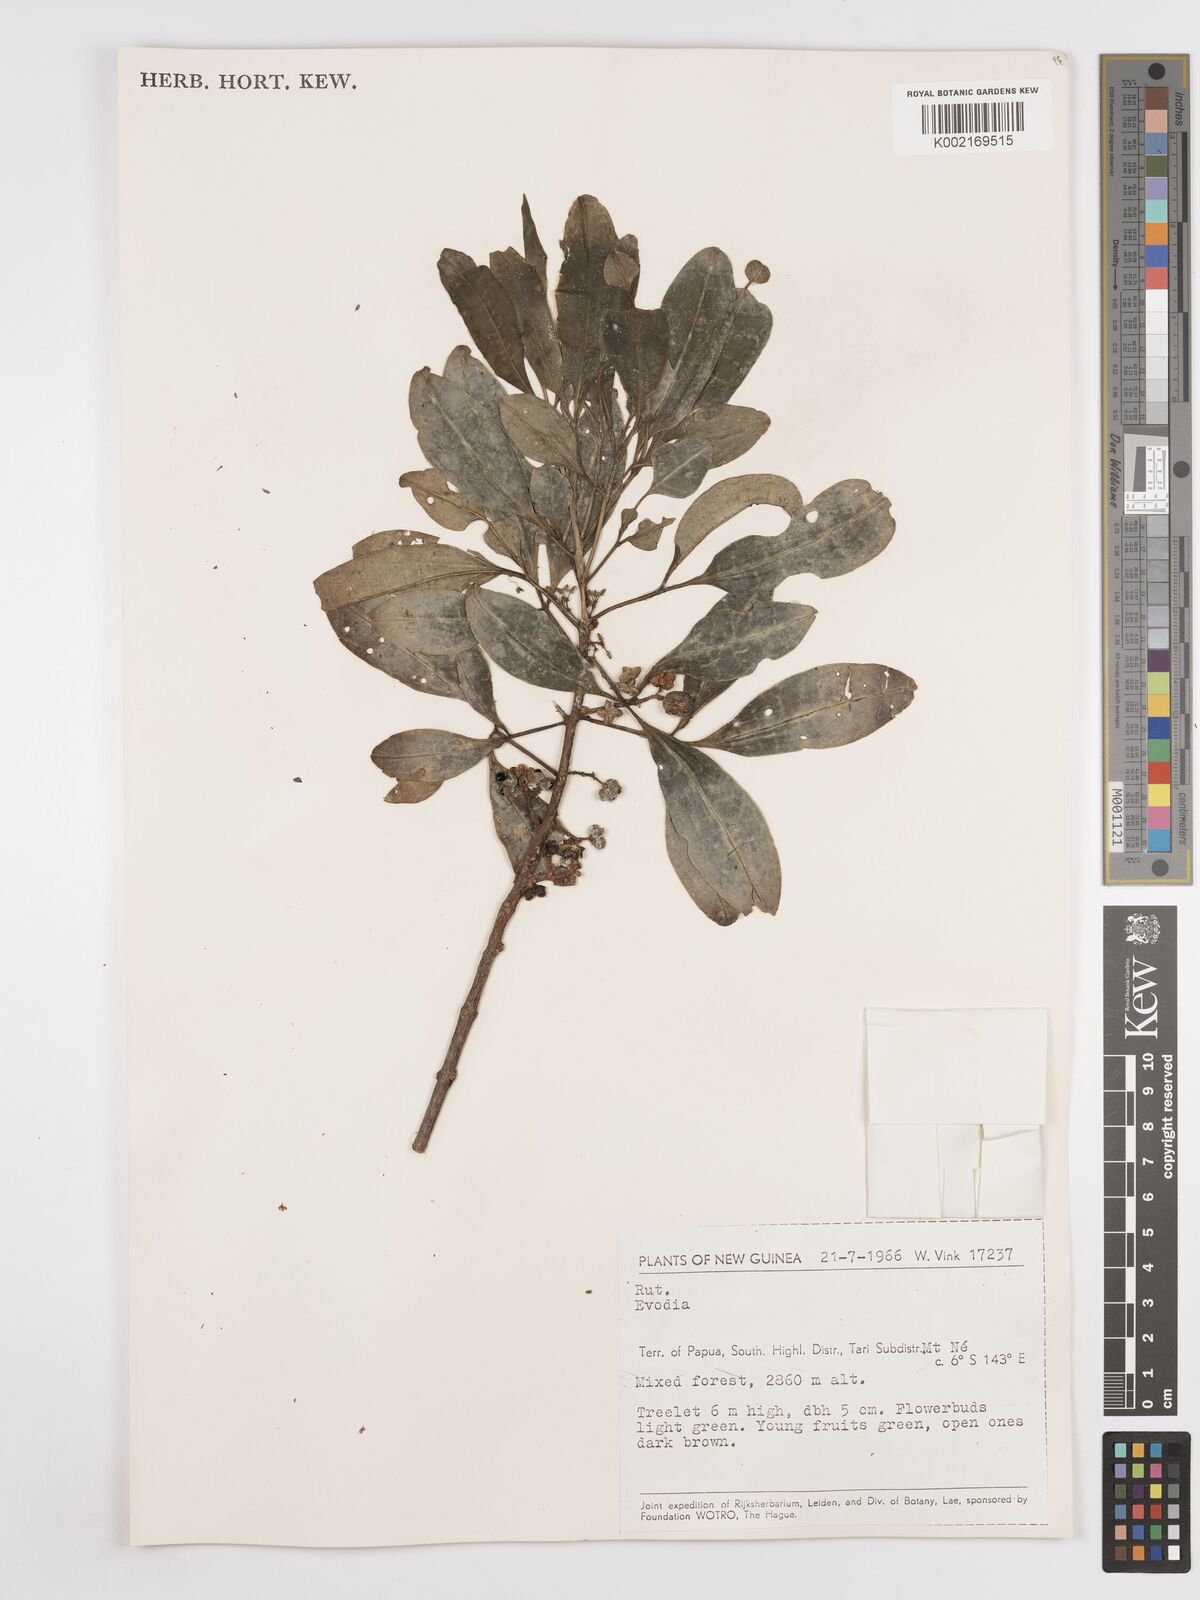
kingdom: Plantae
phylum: Tracheophyta
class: Magnoliopsida
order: Sapindales
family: Rutaceae
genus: Euodia
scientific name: Euodia
